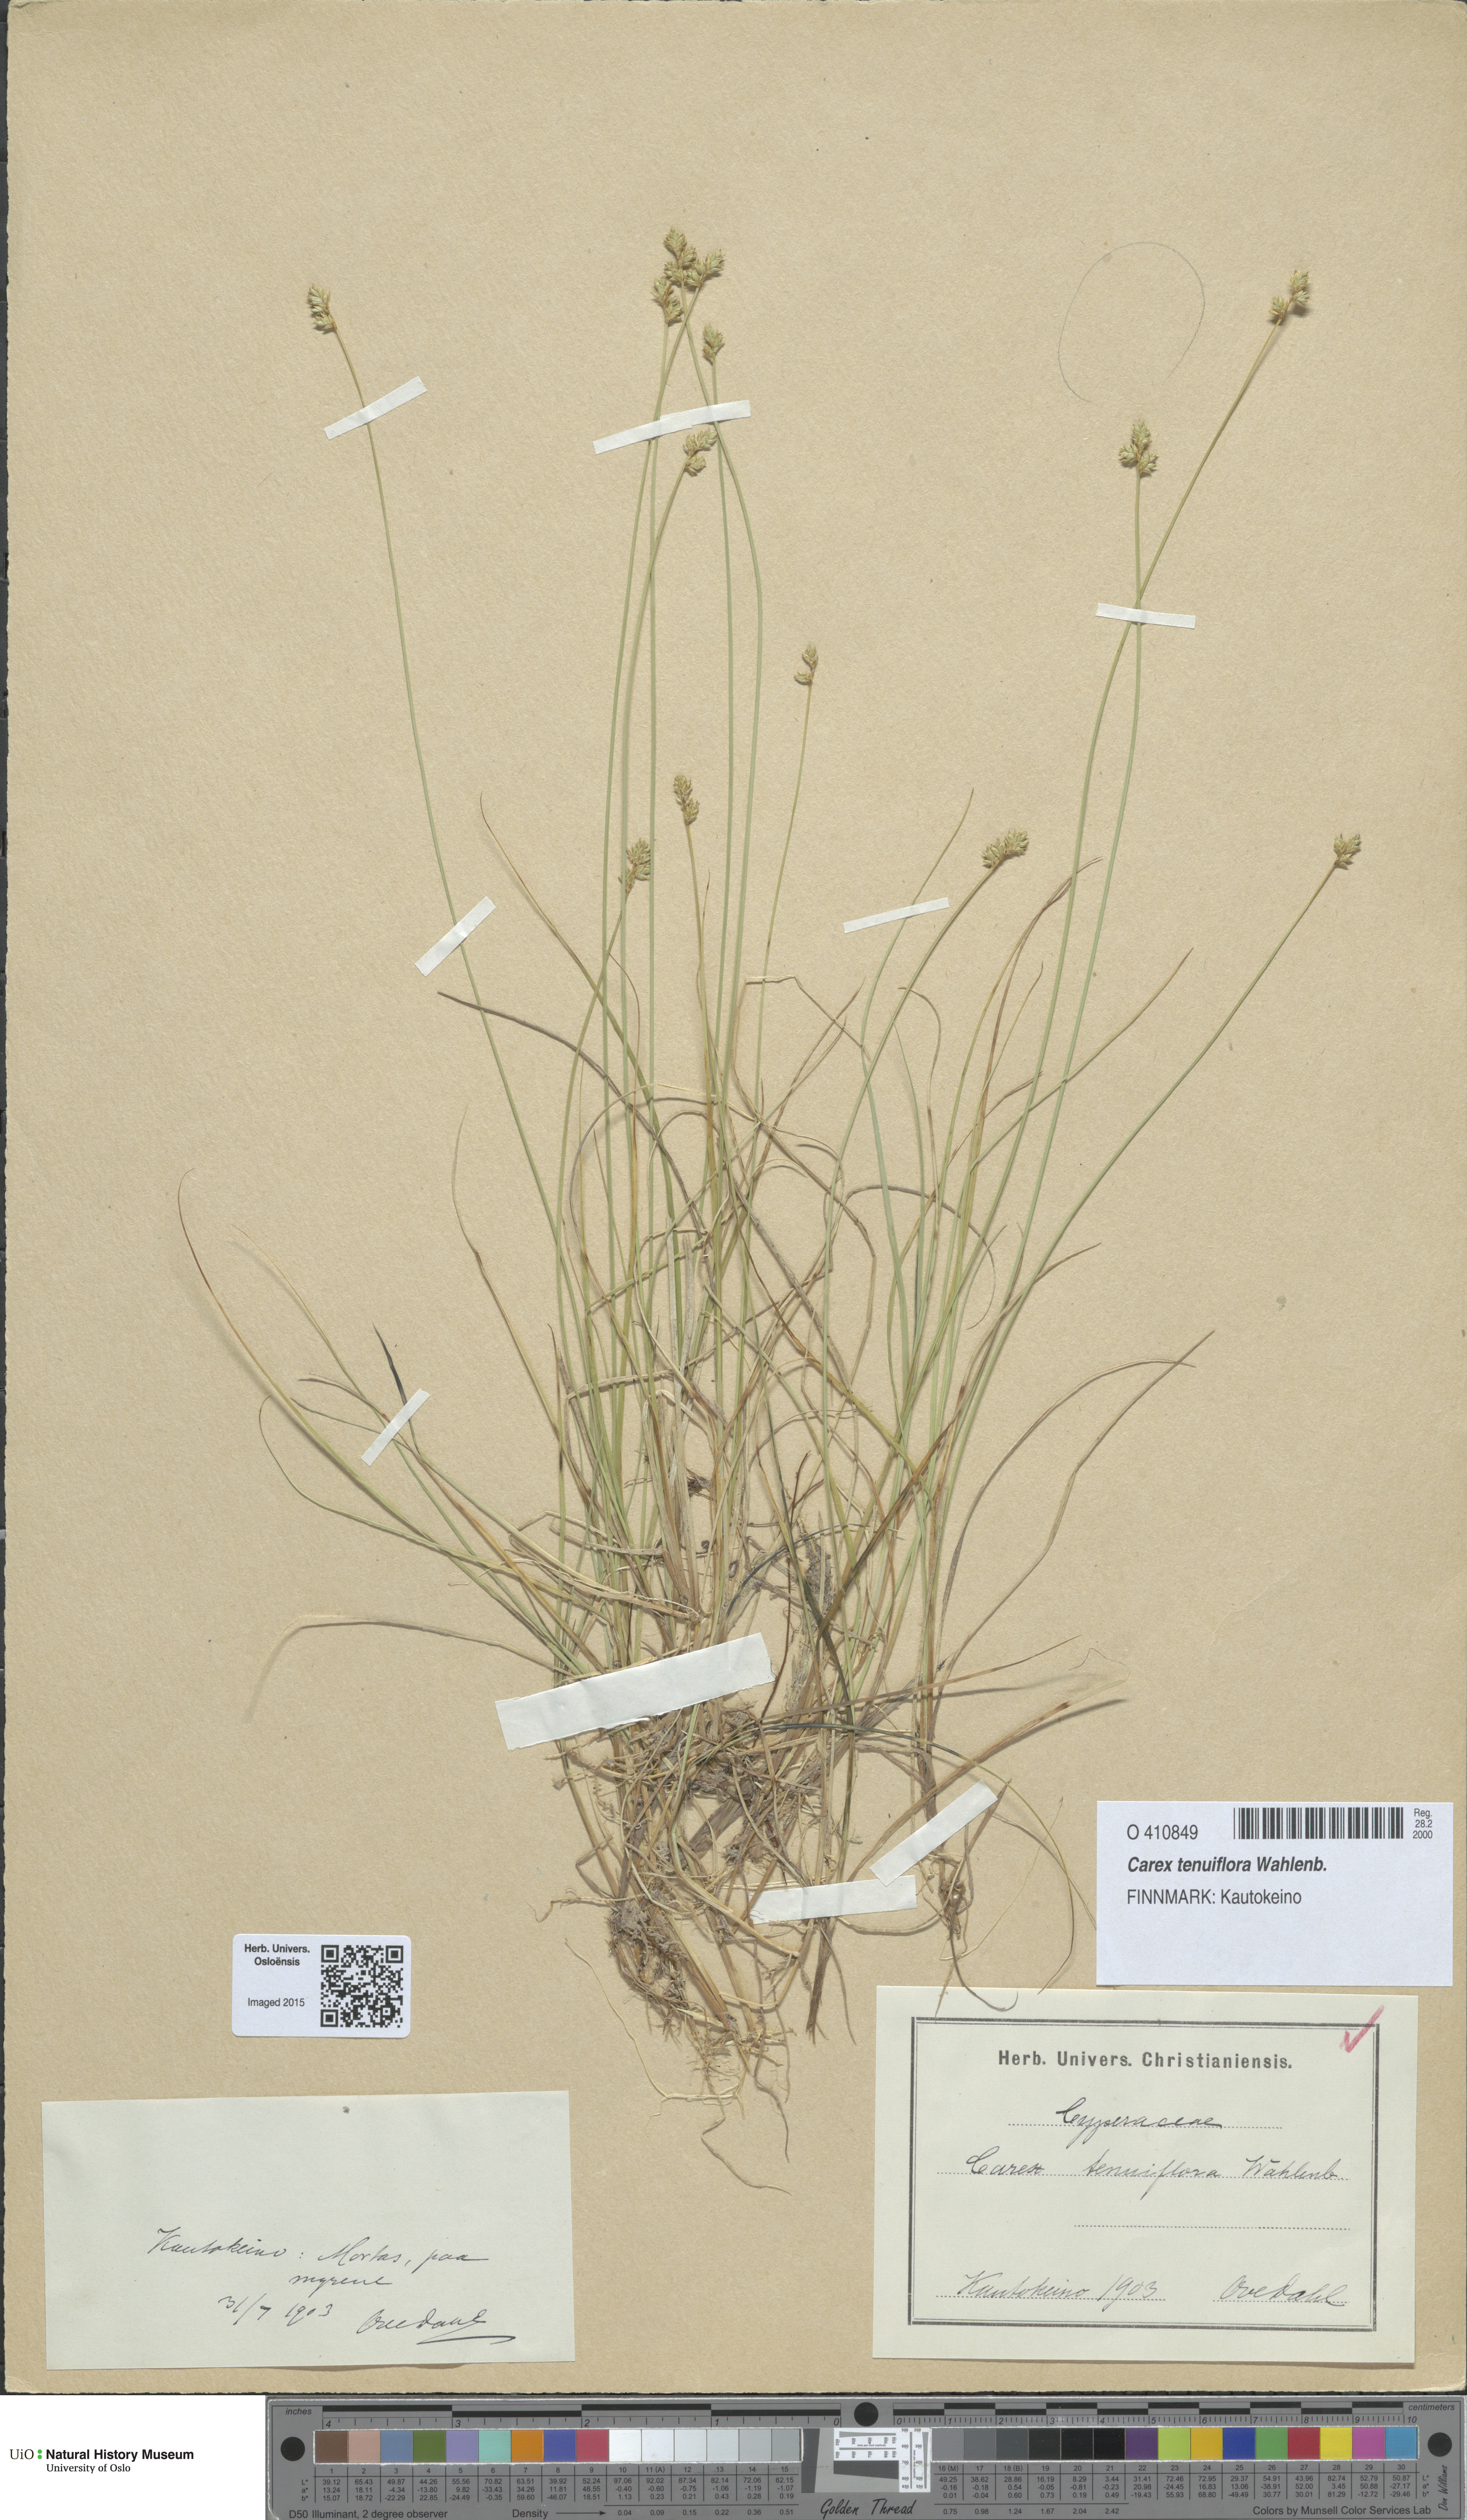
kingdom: Plantae
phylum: Tracheophyta
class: Liliopsida
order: Poales
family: Cyperaceae
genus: Carex
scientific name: Carex tenuiflora
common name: Sparse-flowered sedge
